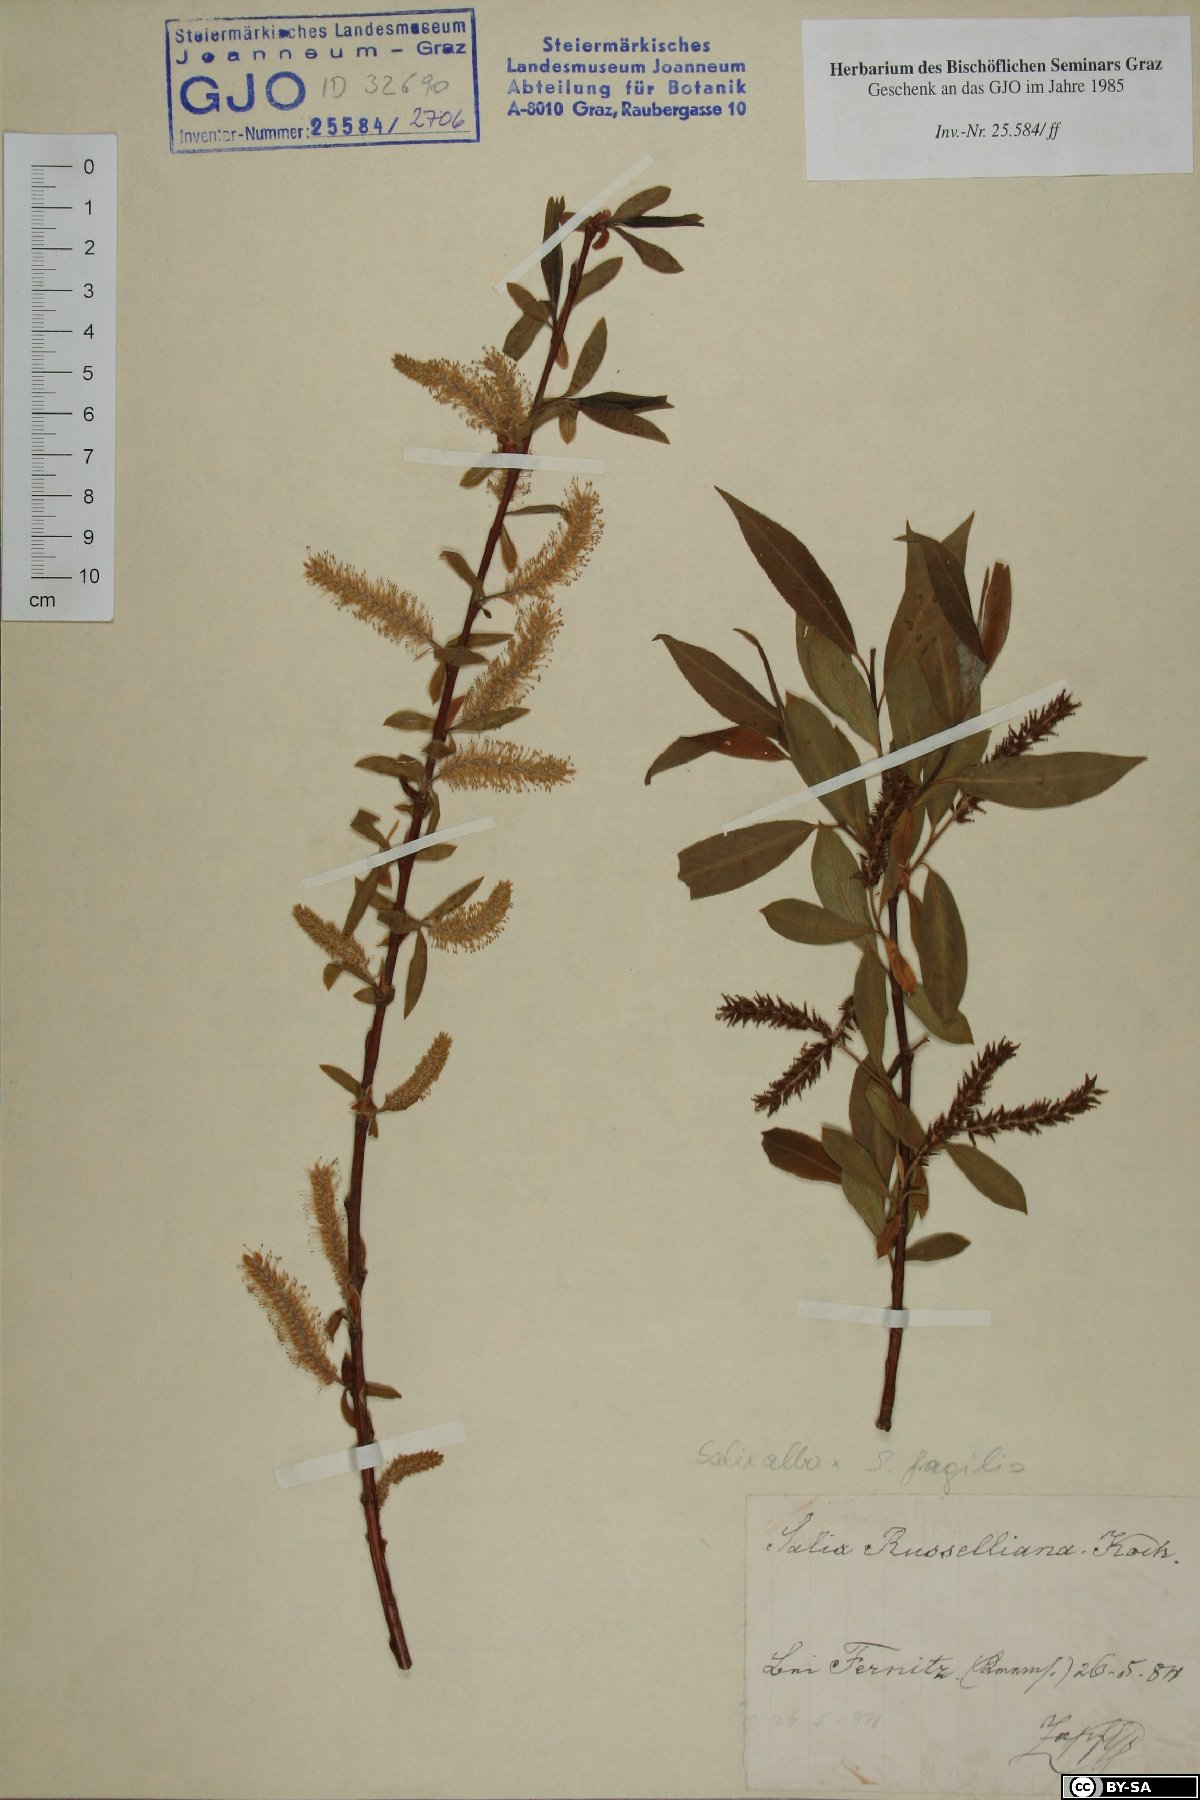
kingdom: Plantae
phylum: Tracheophyta
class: Magnoliopsida
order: Malpighiales
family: Salicaceae
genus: Salix
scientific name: Salix rubens
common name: Hybrid crack willow
